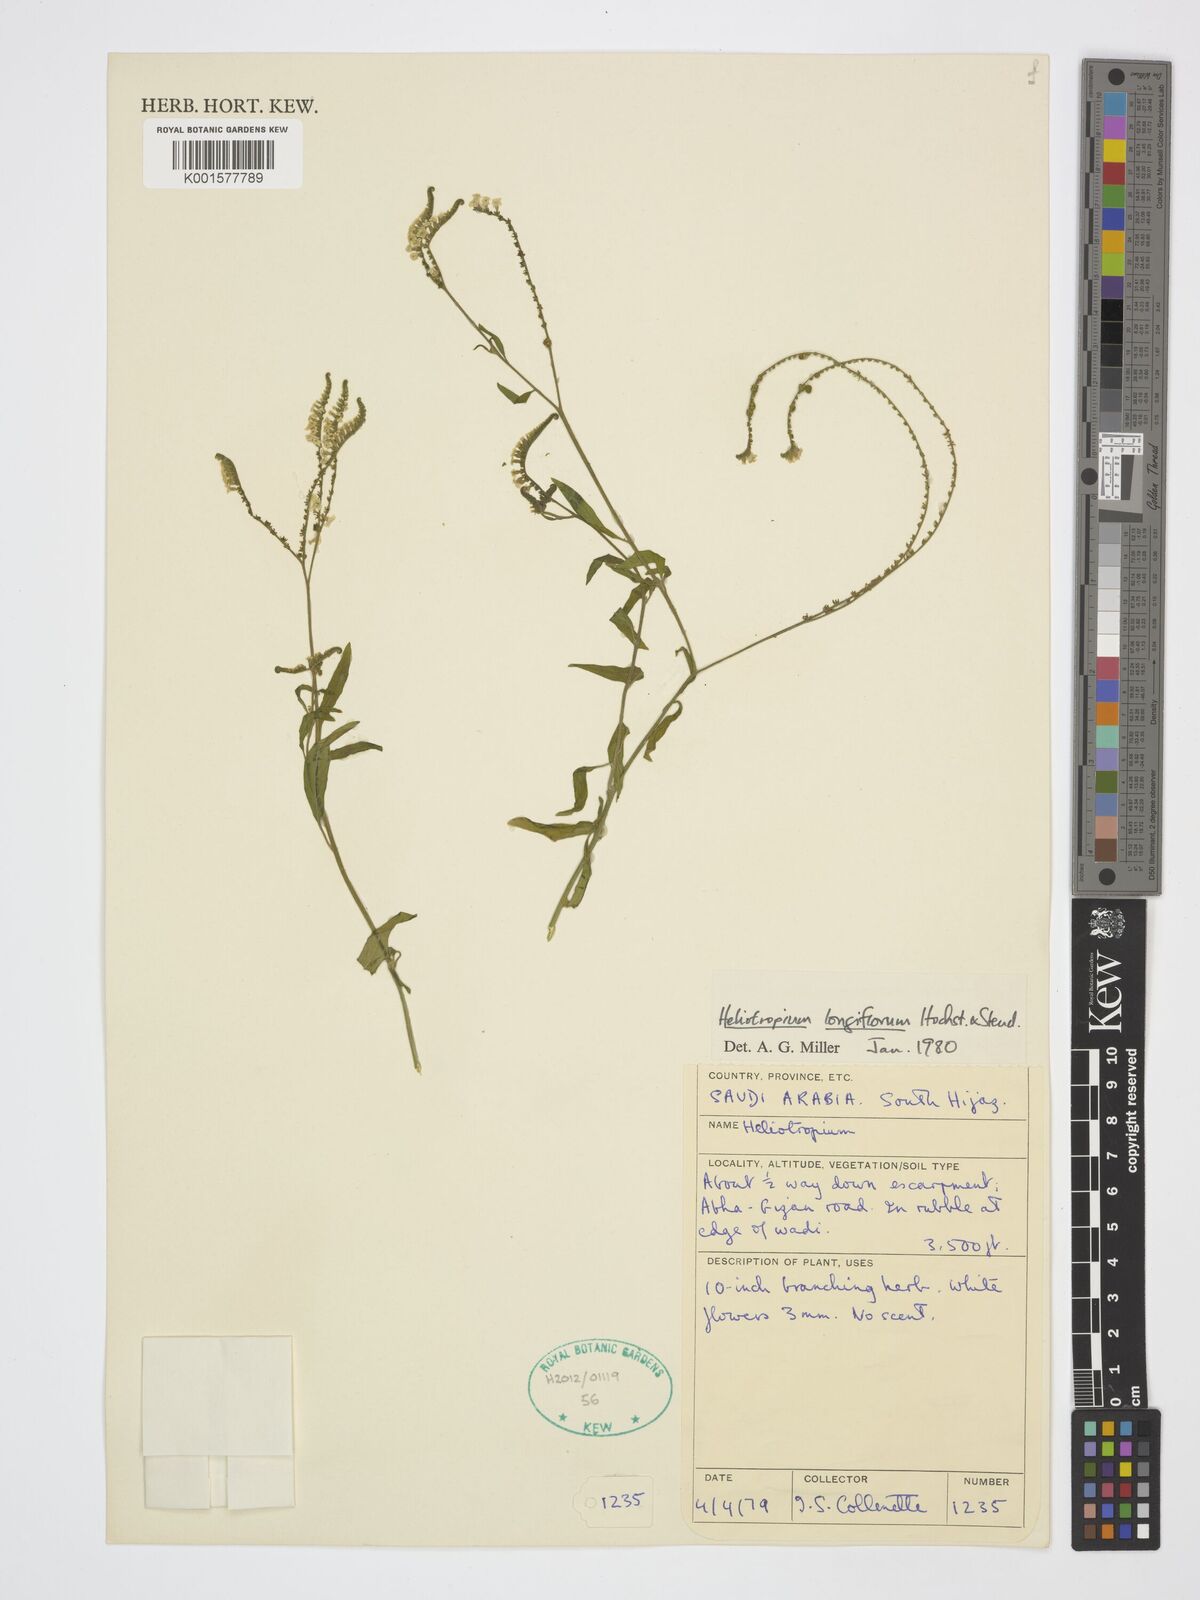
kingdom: Plantae
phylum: Tracheophyta
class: Magnoliopsida
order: Boraginales
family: Heliotropiaceae
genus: Heliotropium
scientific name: Heliotropium longiflorum
